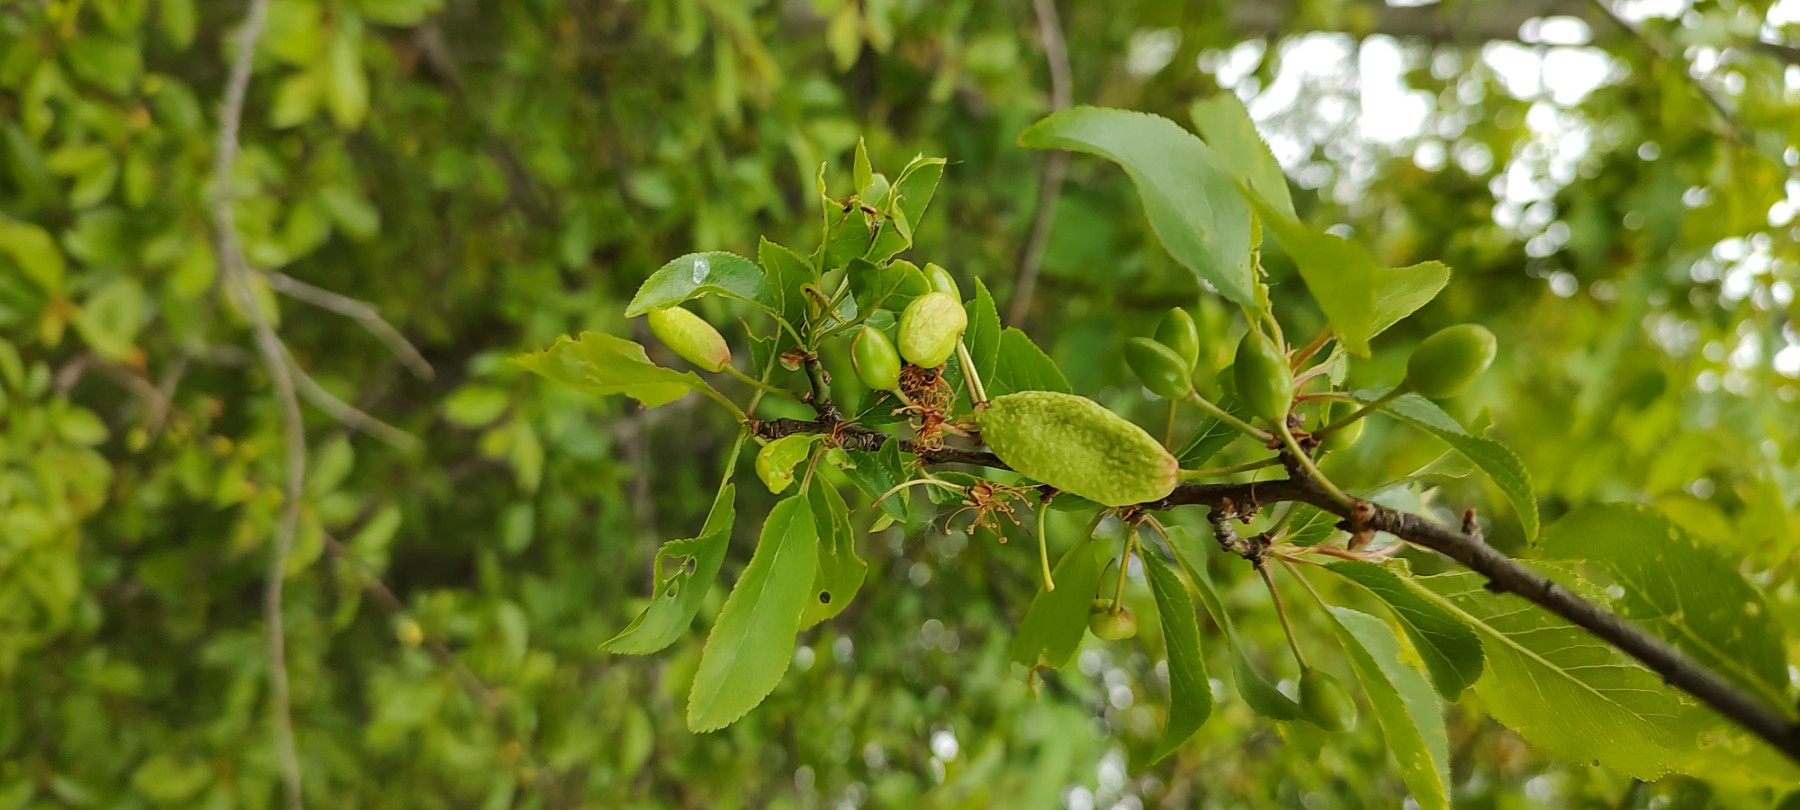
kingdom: Fungi
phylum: Ascomycota
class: Taphrinomycetes
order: Taphrinales
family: Taphrinaceae
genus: Taphrina
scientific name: Taphrina pruni
